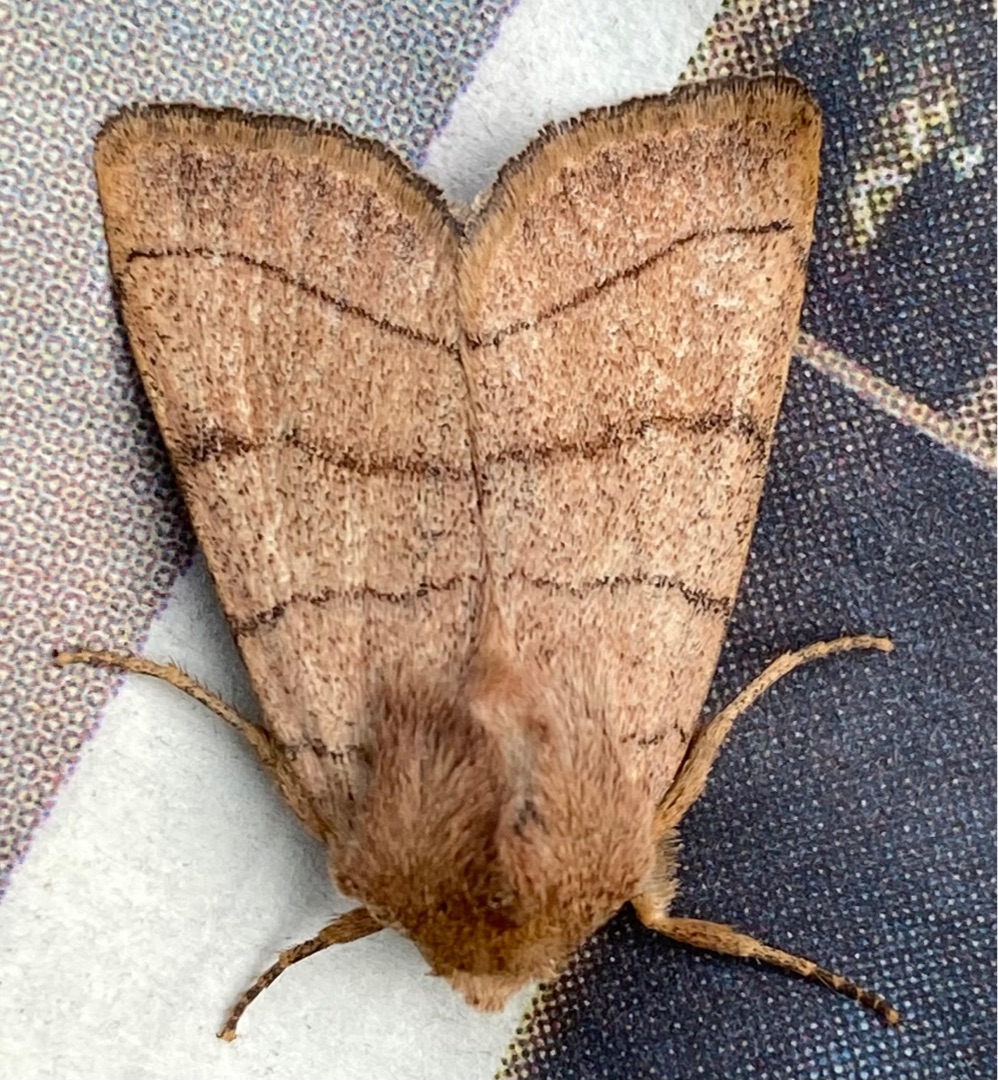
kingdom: Animalia
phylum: Arthropoda
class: Insecta
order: Lepidoptera
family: Noctuidae
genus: Charanyca
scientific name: Charanyca trigrammica
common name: Firestreget ugle
